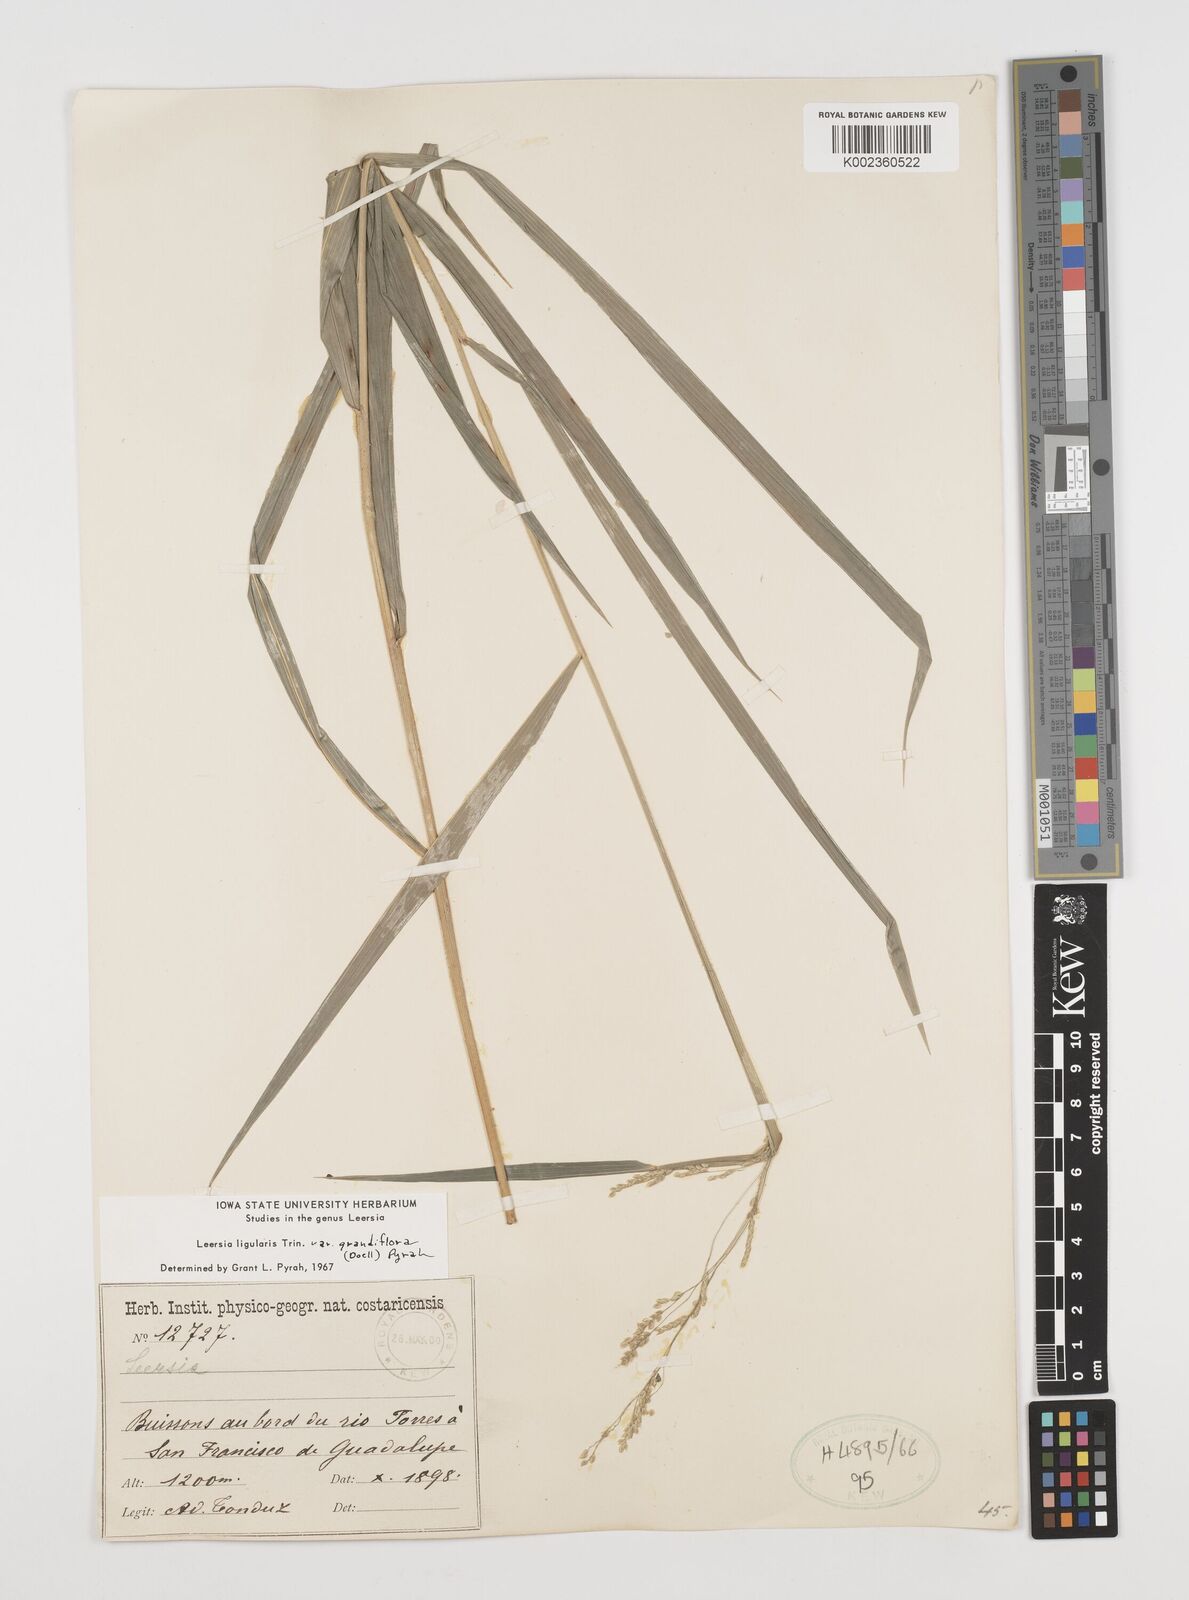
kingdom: Plantae
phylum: Tracheophyta
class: Liliopsida
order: Poales
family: Poaceae
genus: Leersia
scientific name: Leersia ligularis
